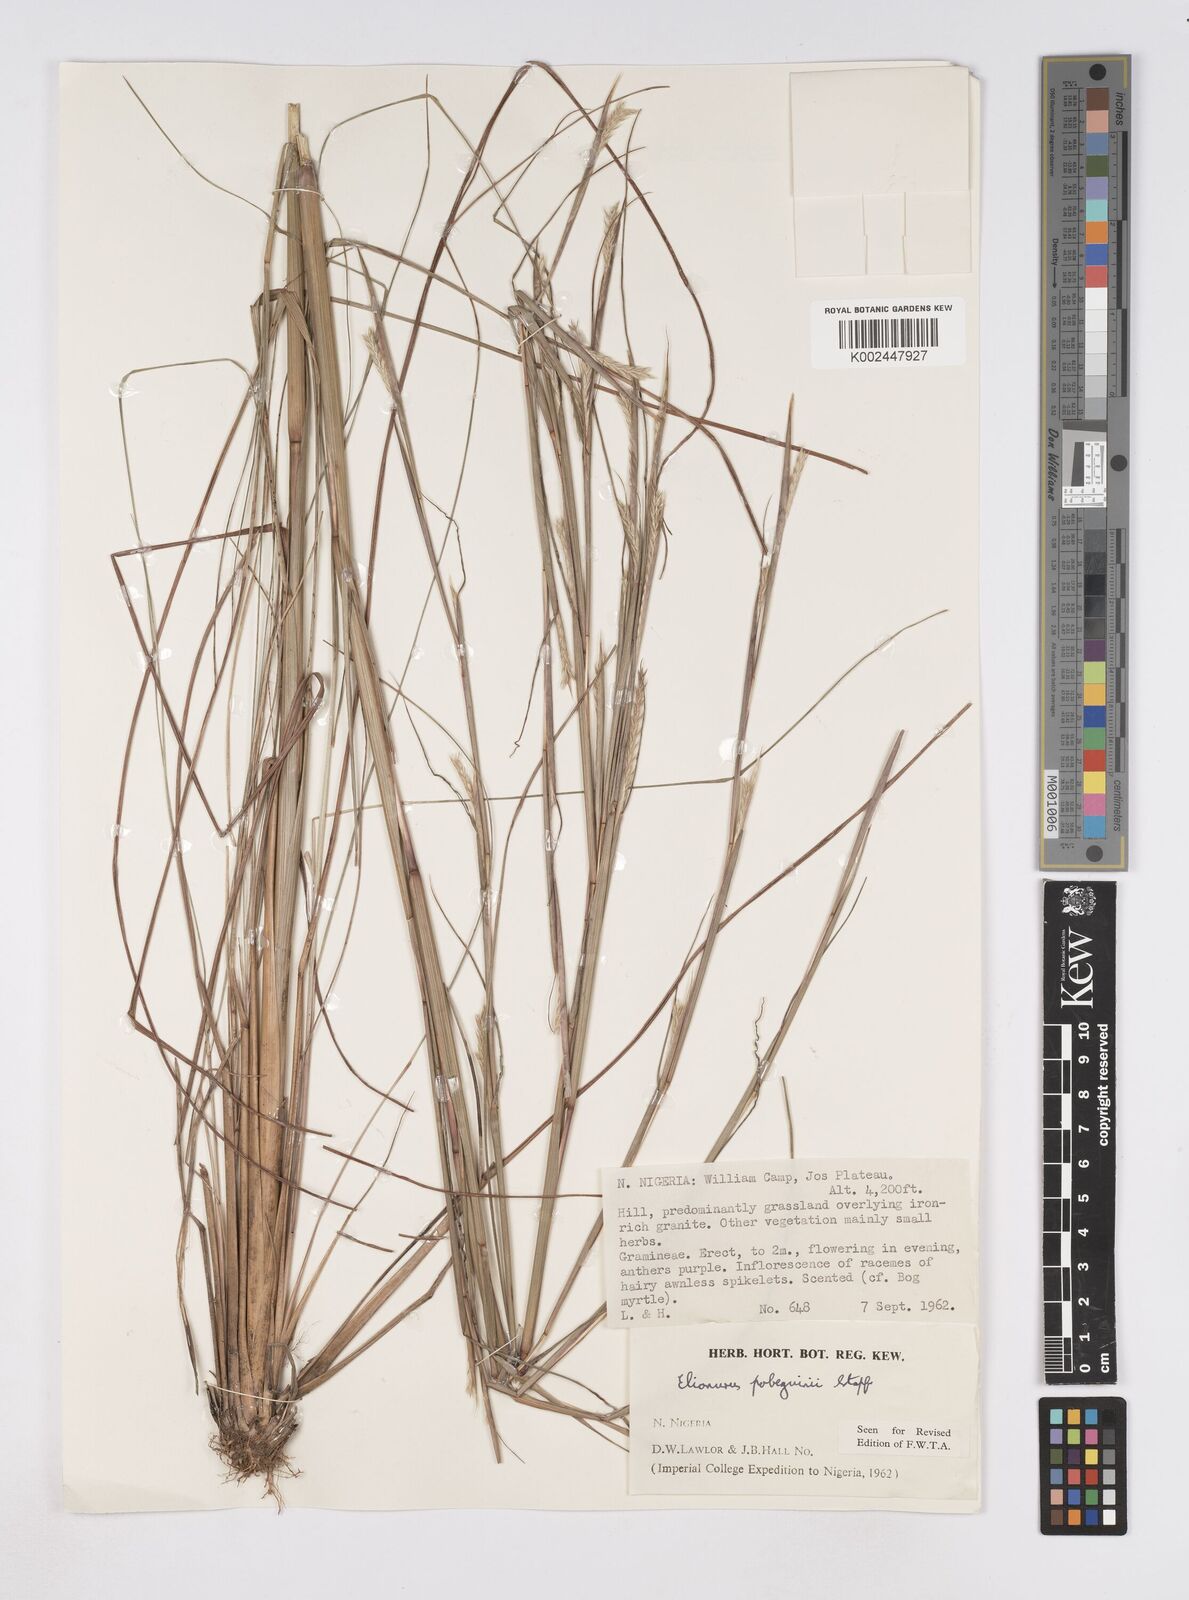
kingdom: Plantae
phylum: Tracheophyta
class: Liliopsida
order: Poales
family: Poaceae
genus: Elionurus
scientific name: Elionurus
